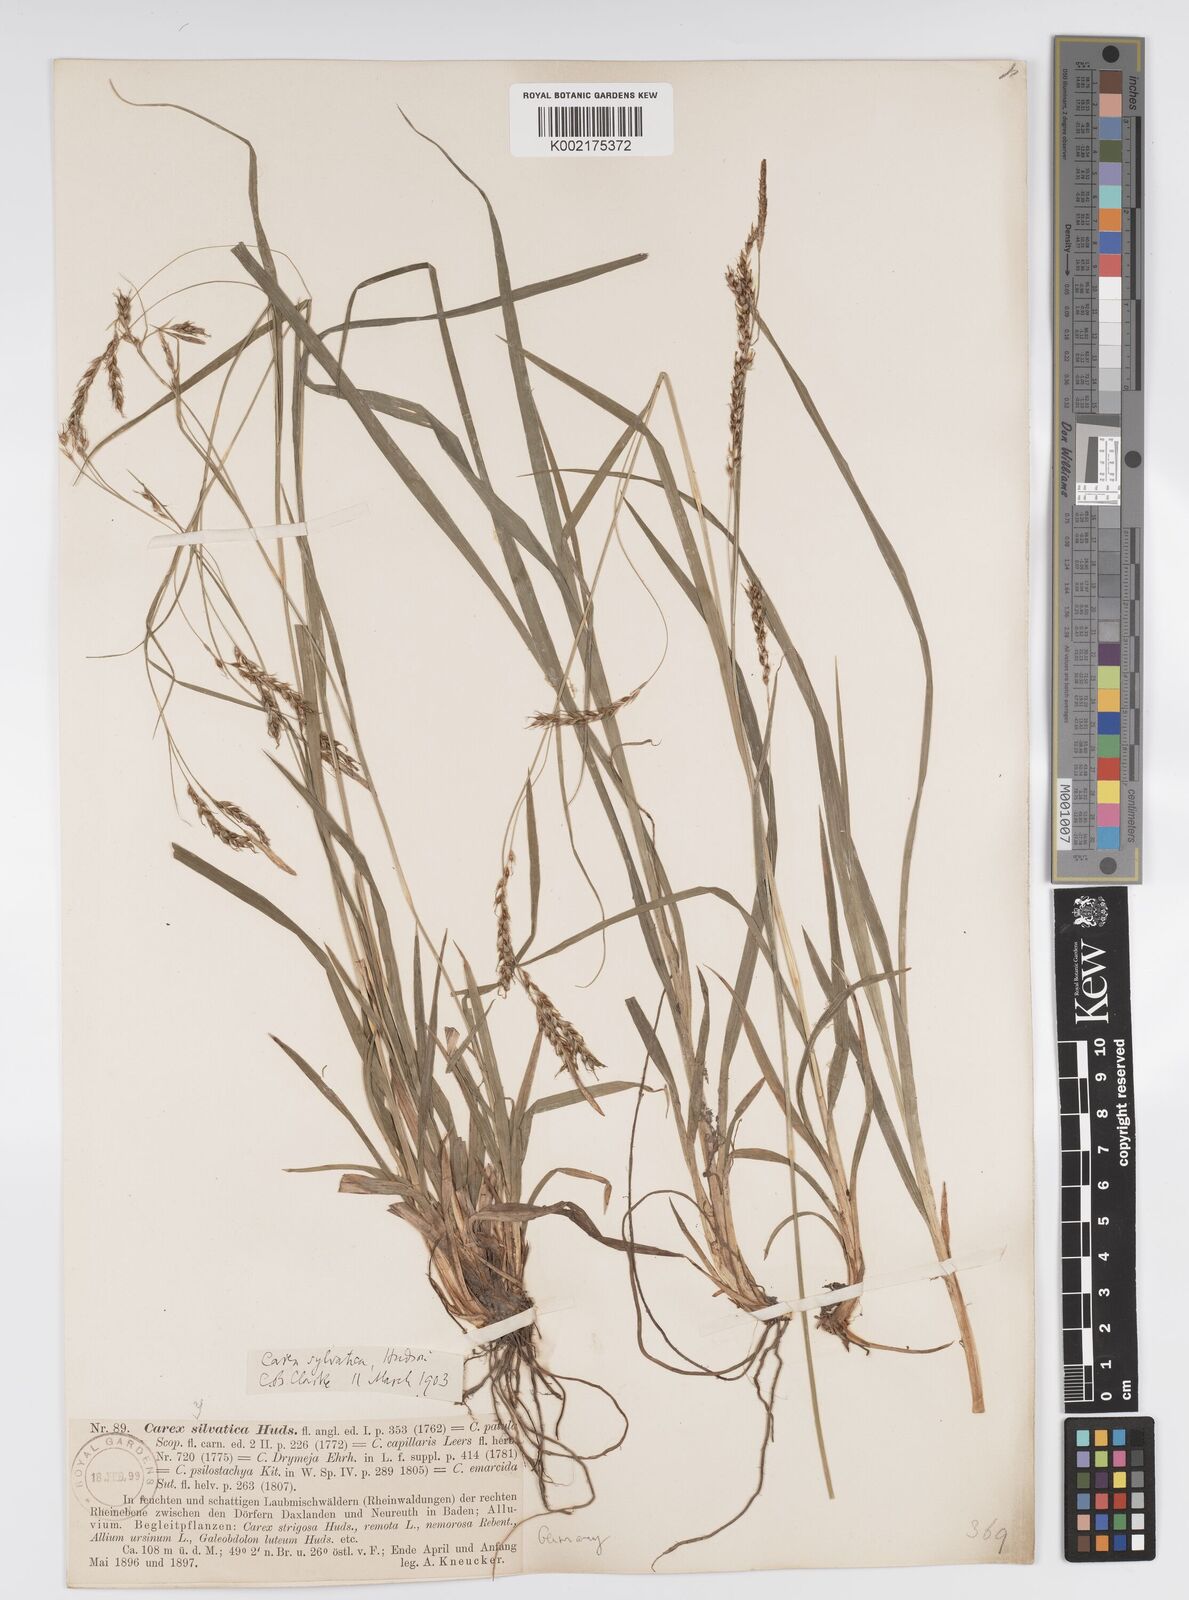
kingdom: Plantae
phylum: Tracheophyta
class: Liliopsida
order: Poales
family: Cyperaceae
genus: Carex
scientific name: Carex sylvatica
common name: Wood-sedge
